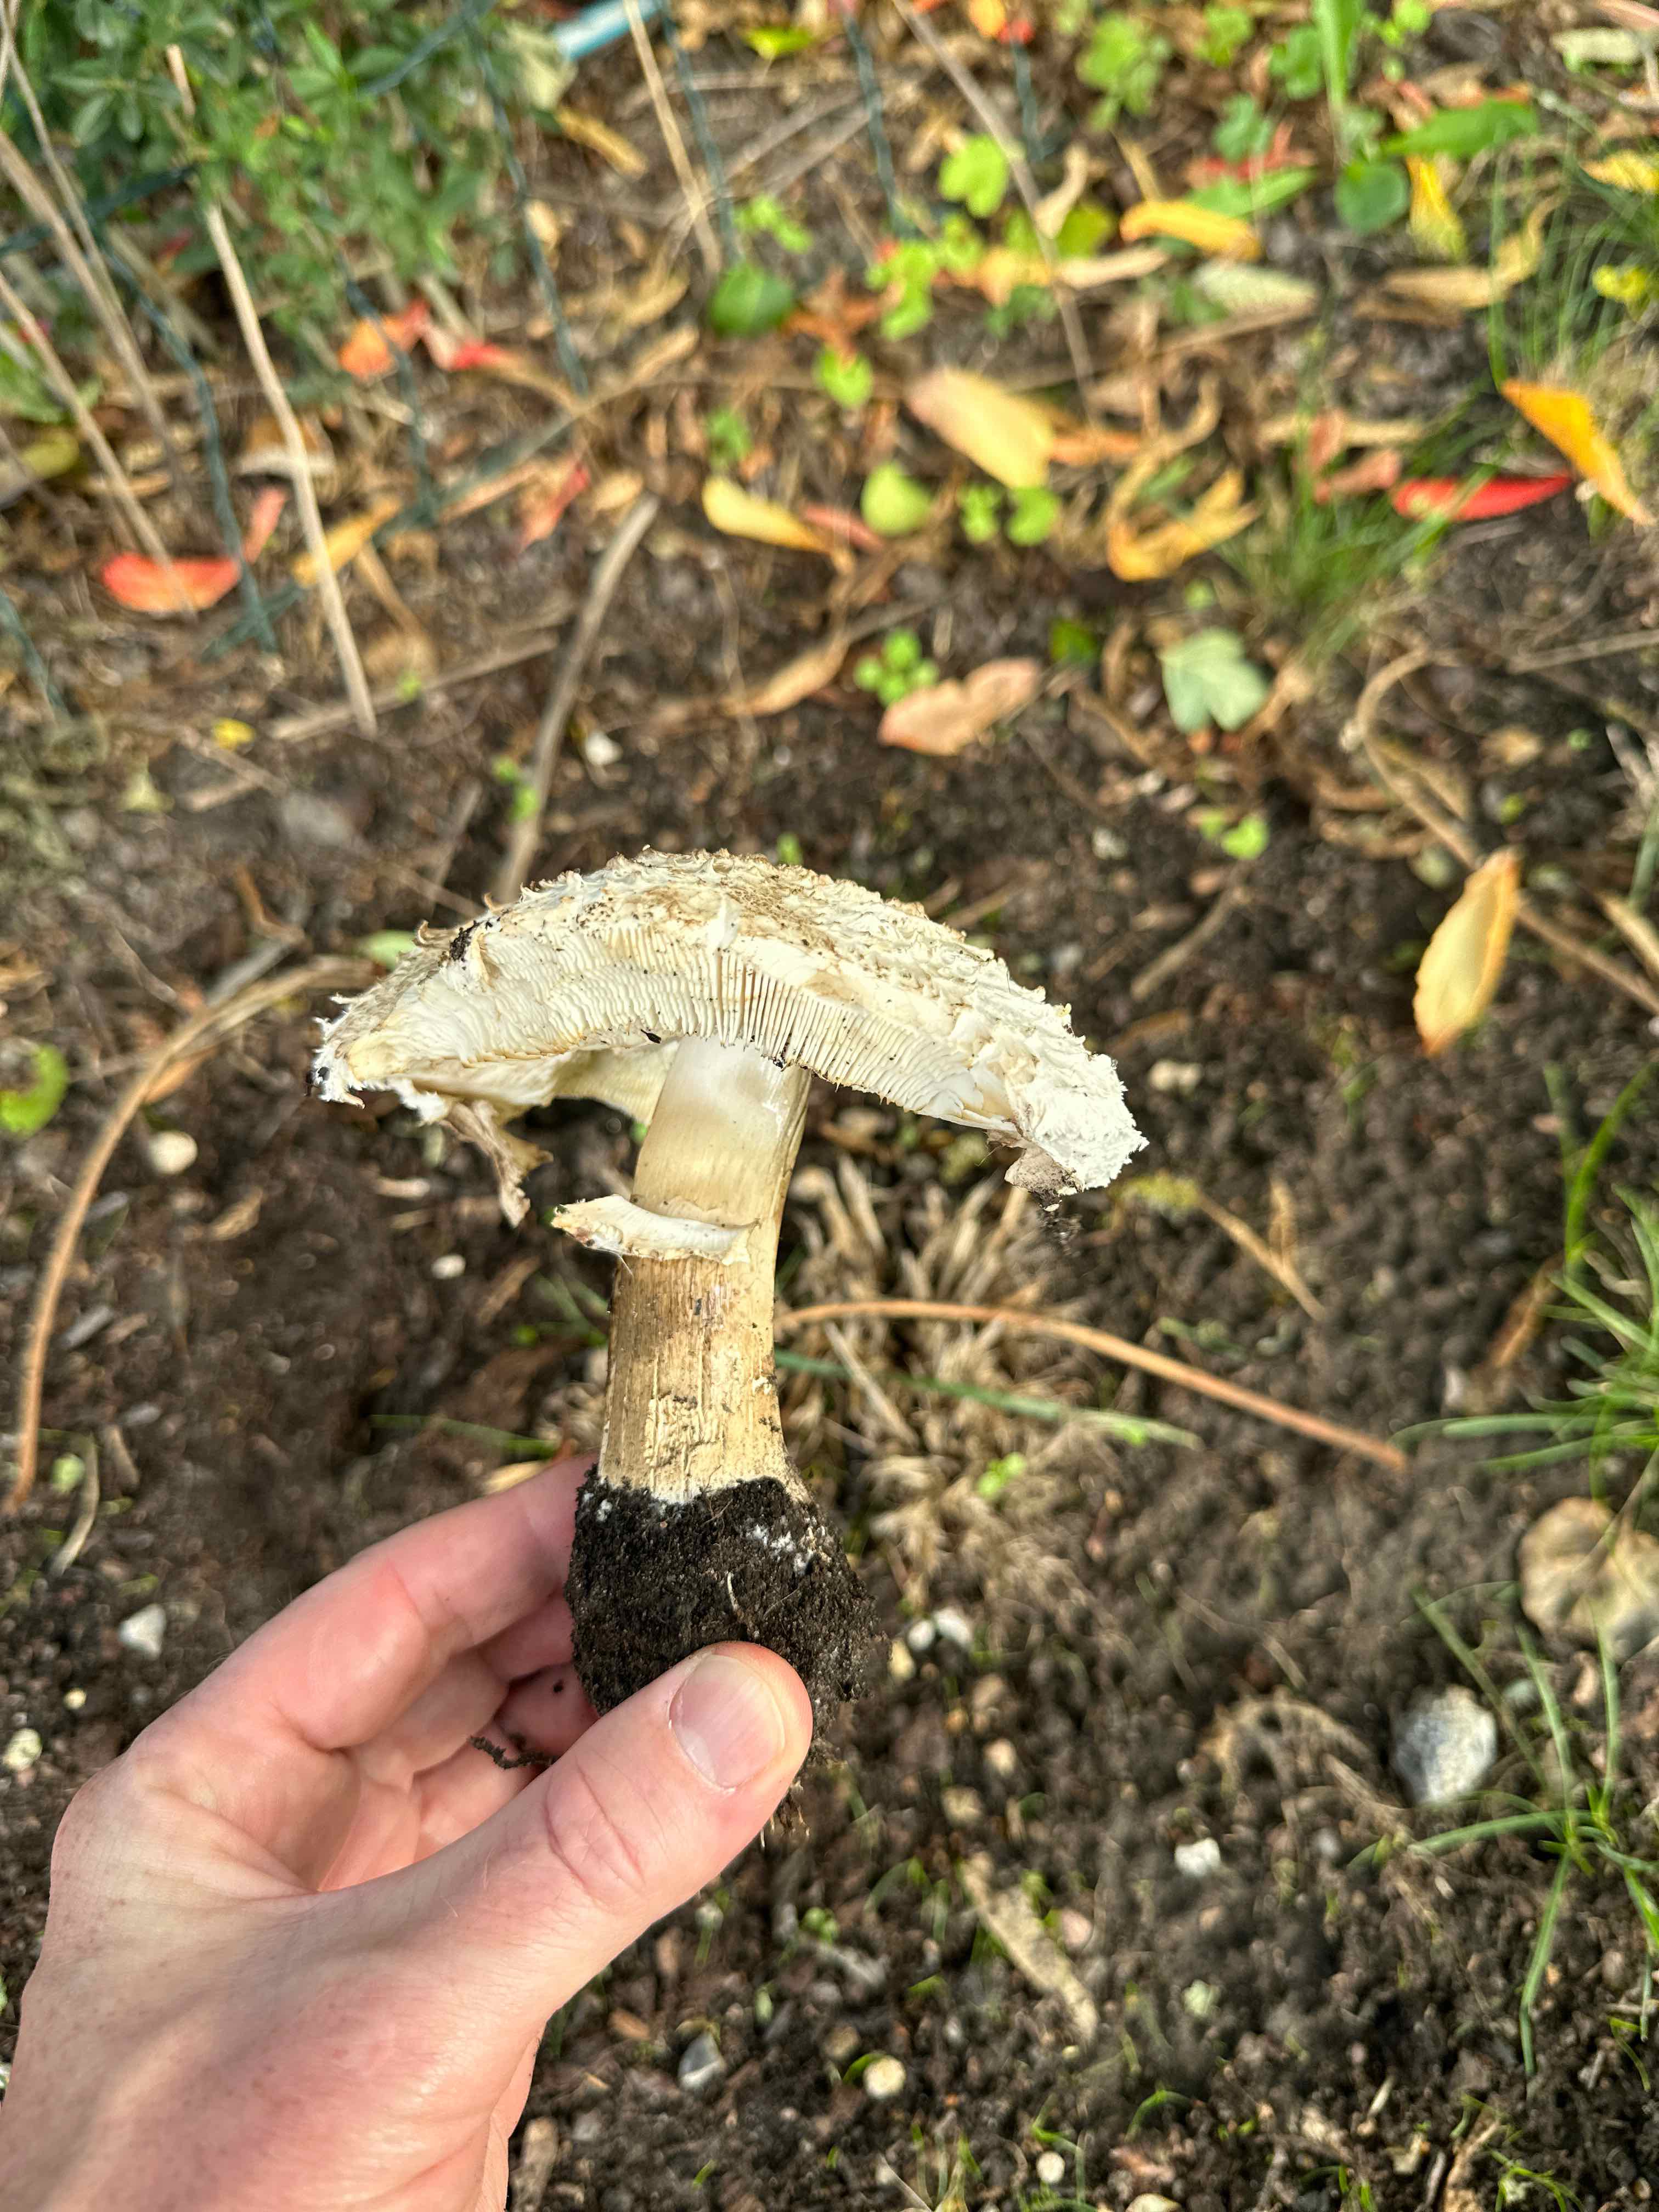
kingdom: Fungi
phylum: Basidiomycota
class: Agaricomycetes
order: Agaricales
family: Agaricaceae
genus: Chlorophyllum
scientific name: Chlorophyllum brunneum
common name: giftig rabarberhat
